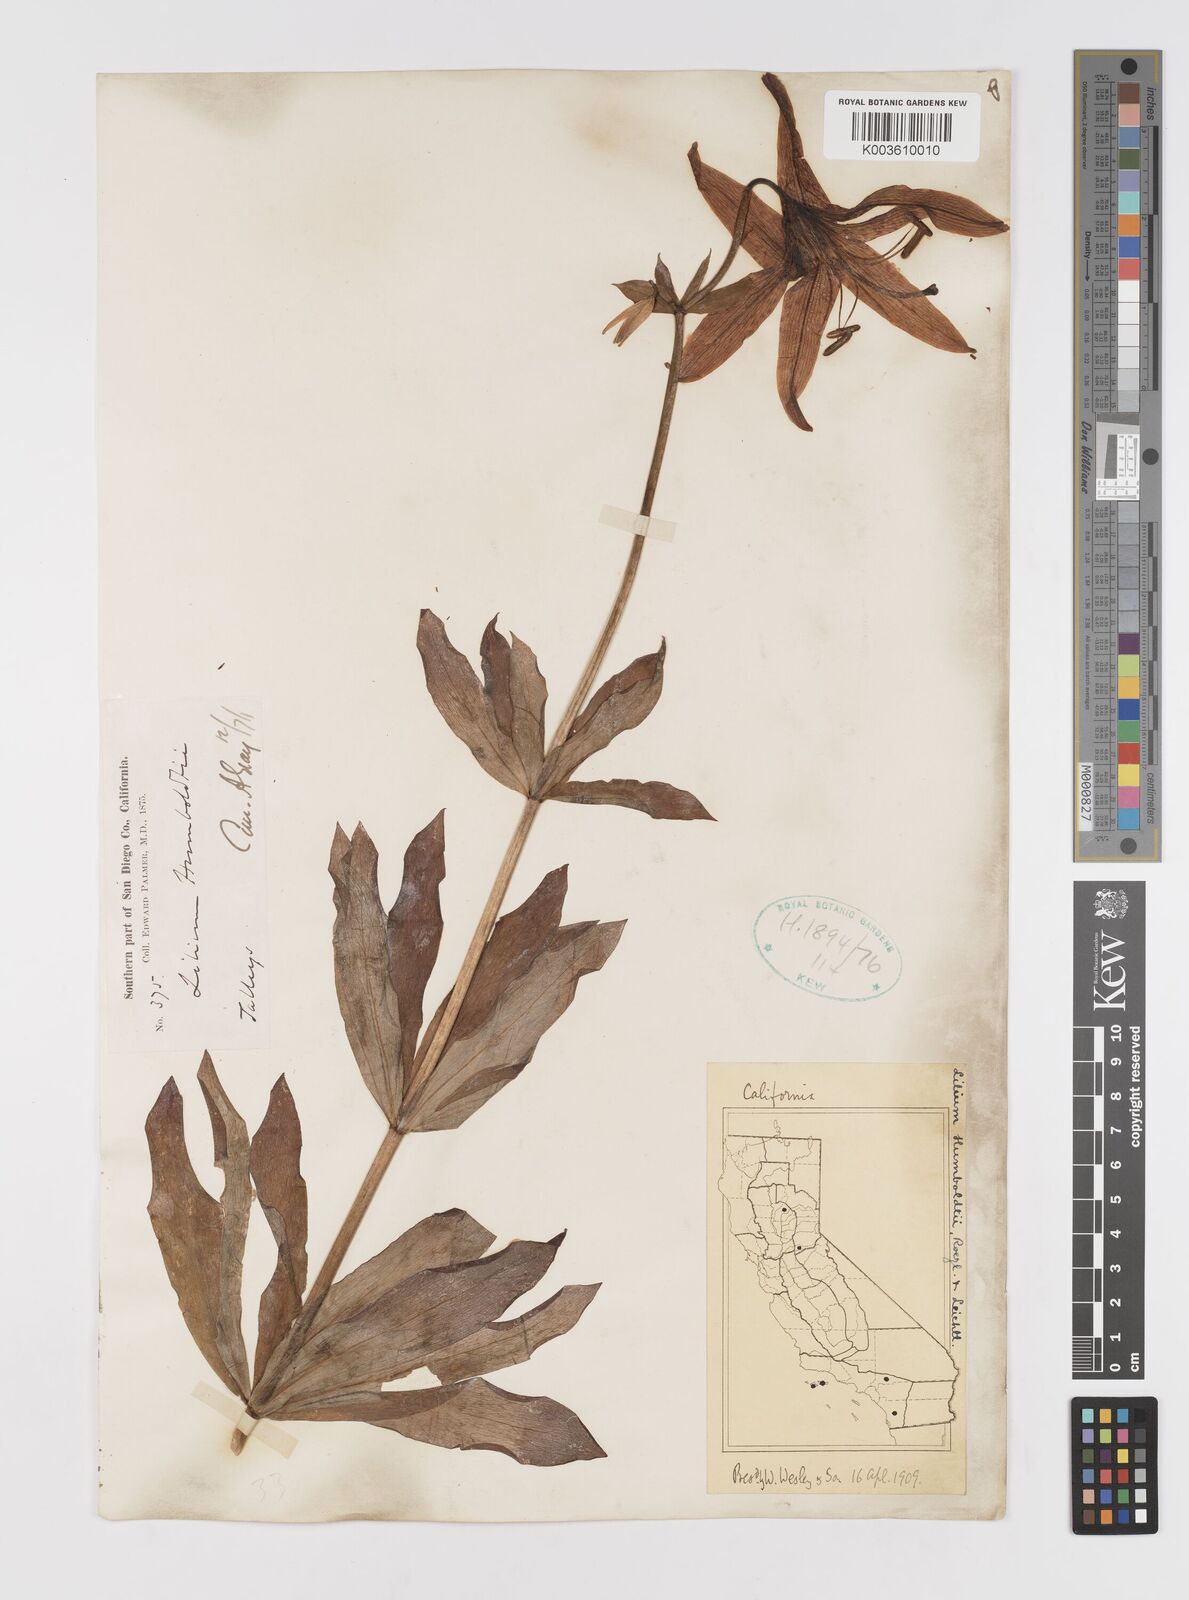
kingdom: Plantae
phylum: Tracheophyta
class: Liliopsida
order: Liliales
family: Liliaceae
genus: Lilium
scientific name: Lilium humboldtii
